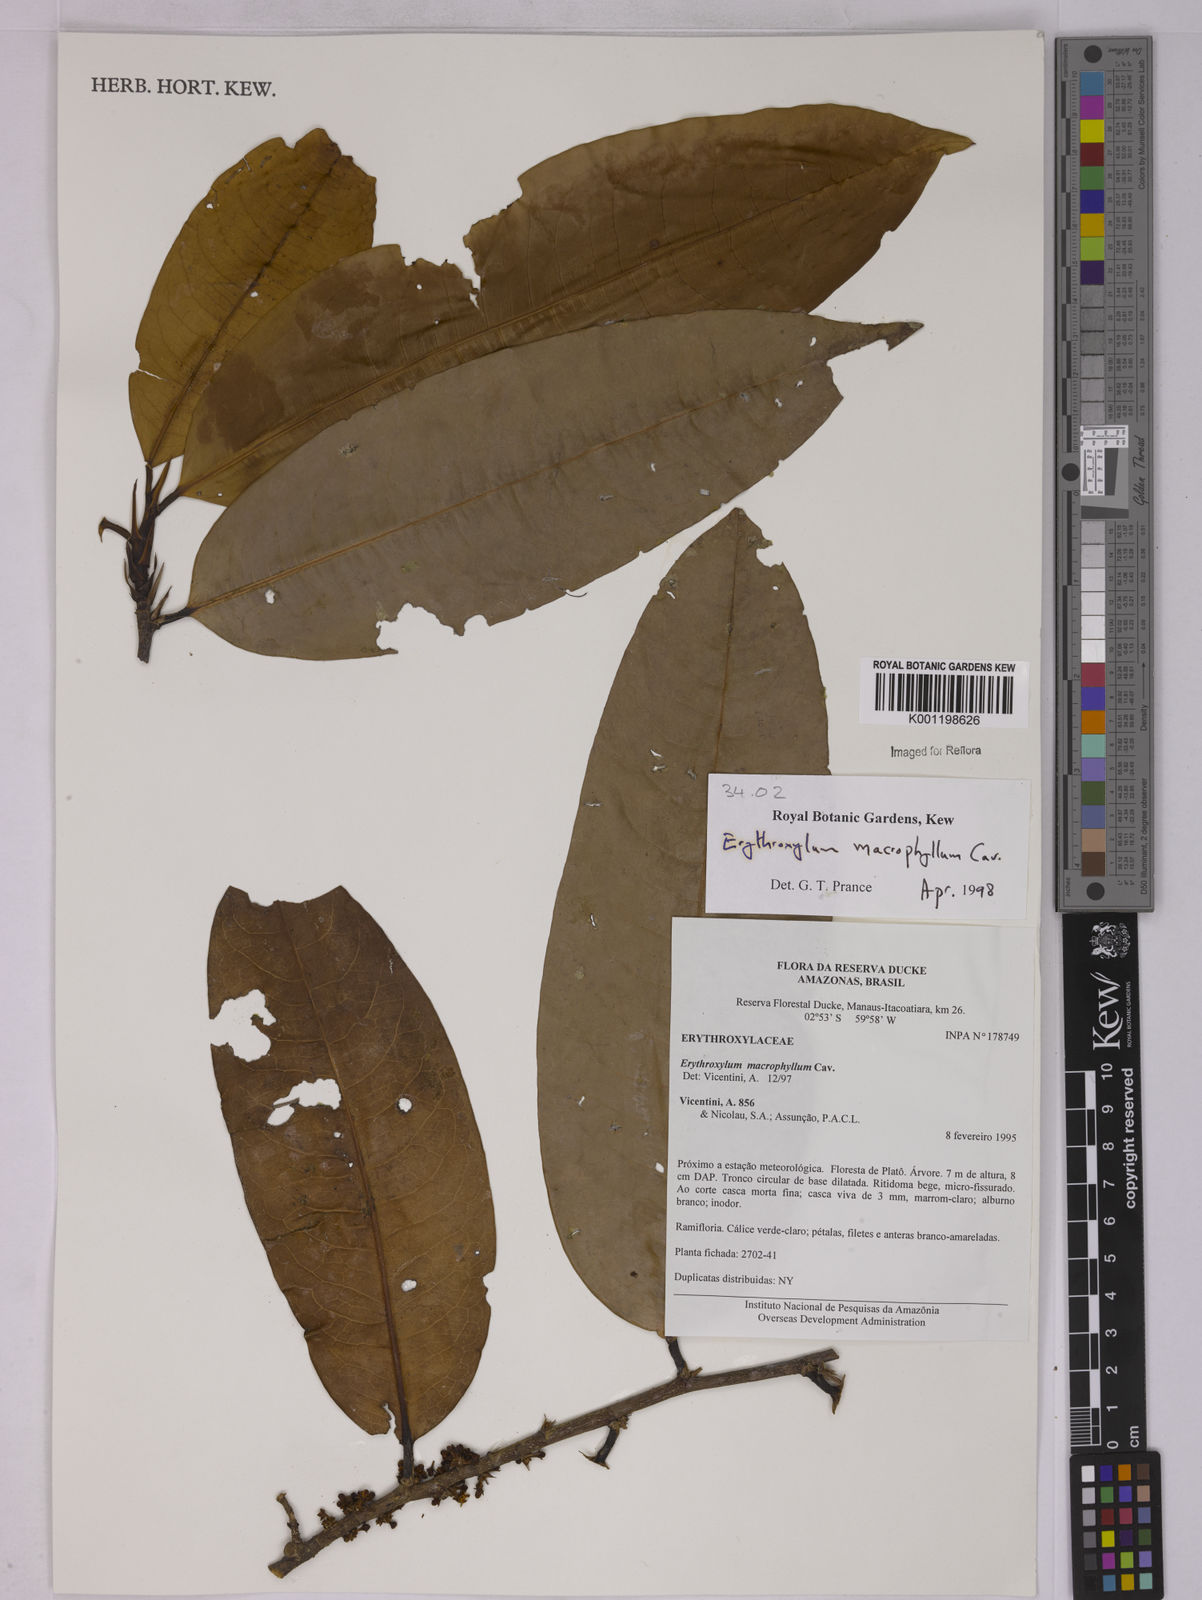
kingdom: Plantae
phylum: Tracheophyta
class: Magnoliopsida
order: Malpighiales
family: Erythroxylaceae
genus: Erythroxylum
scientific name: Erythroxylum macrophyllum
